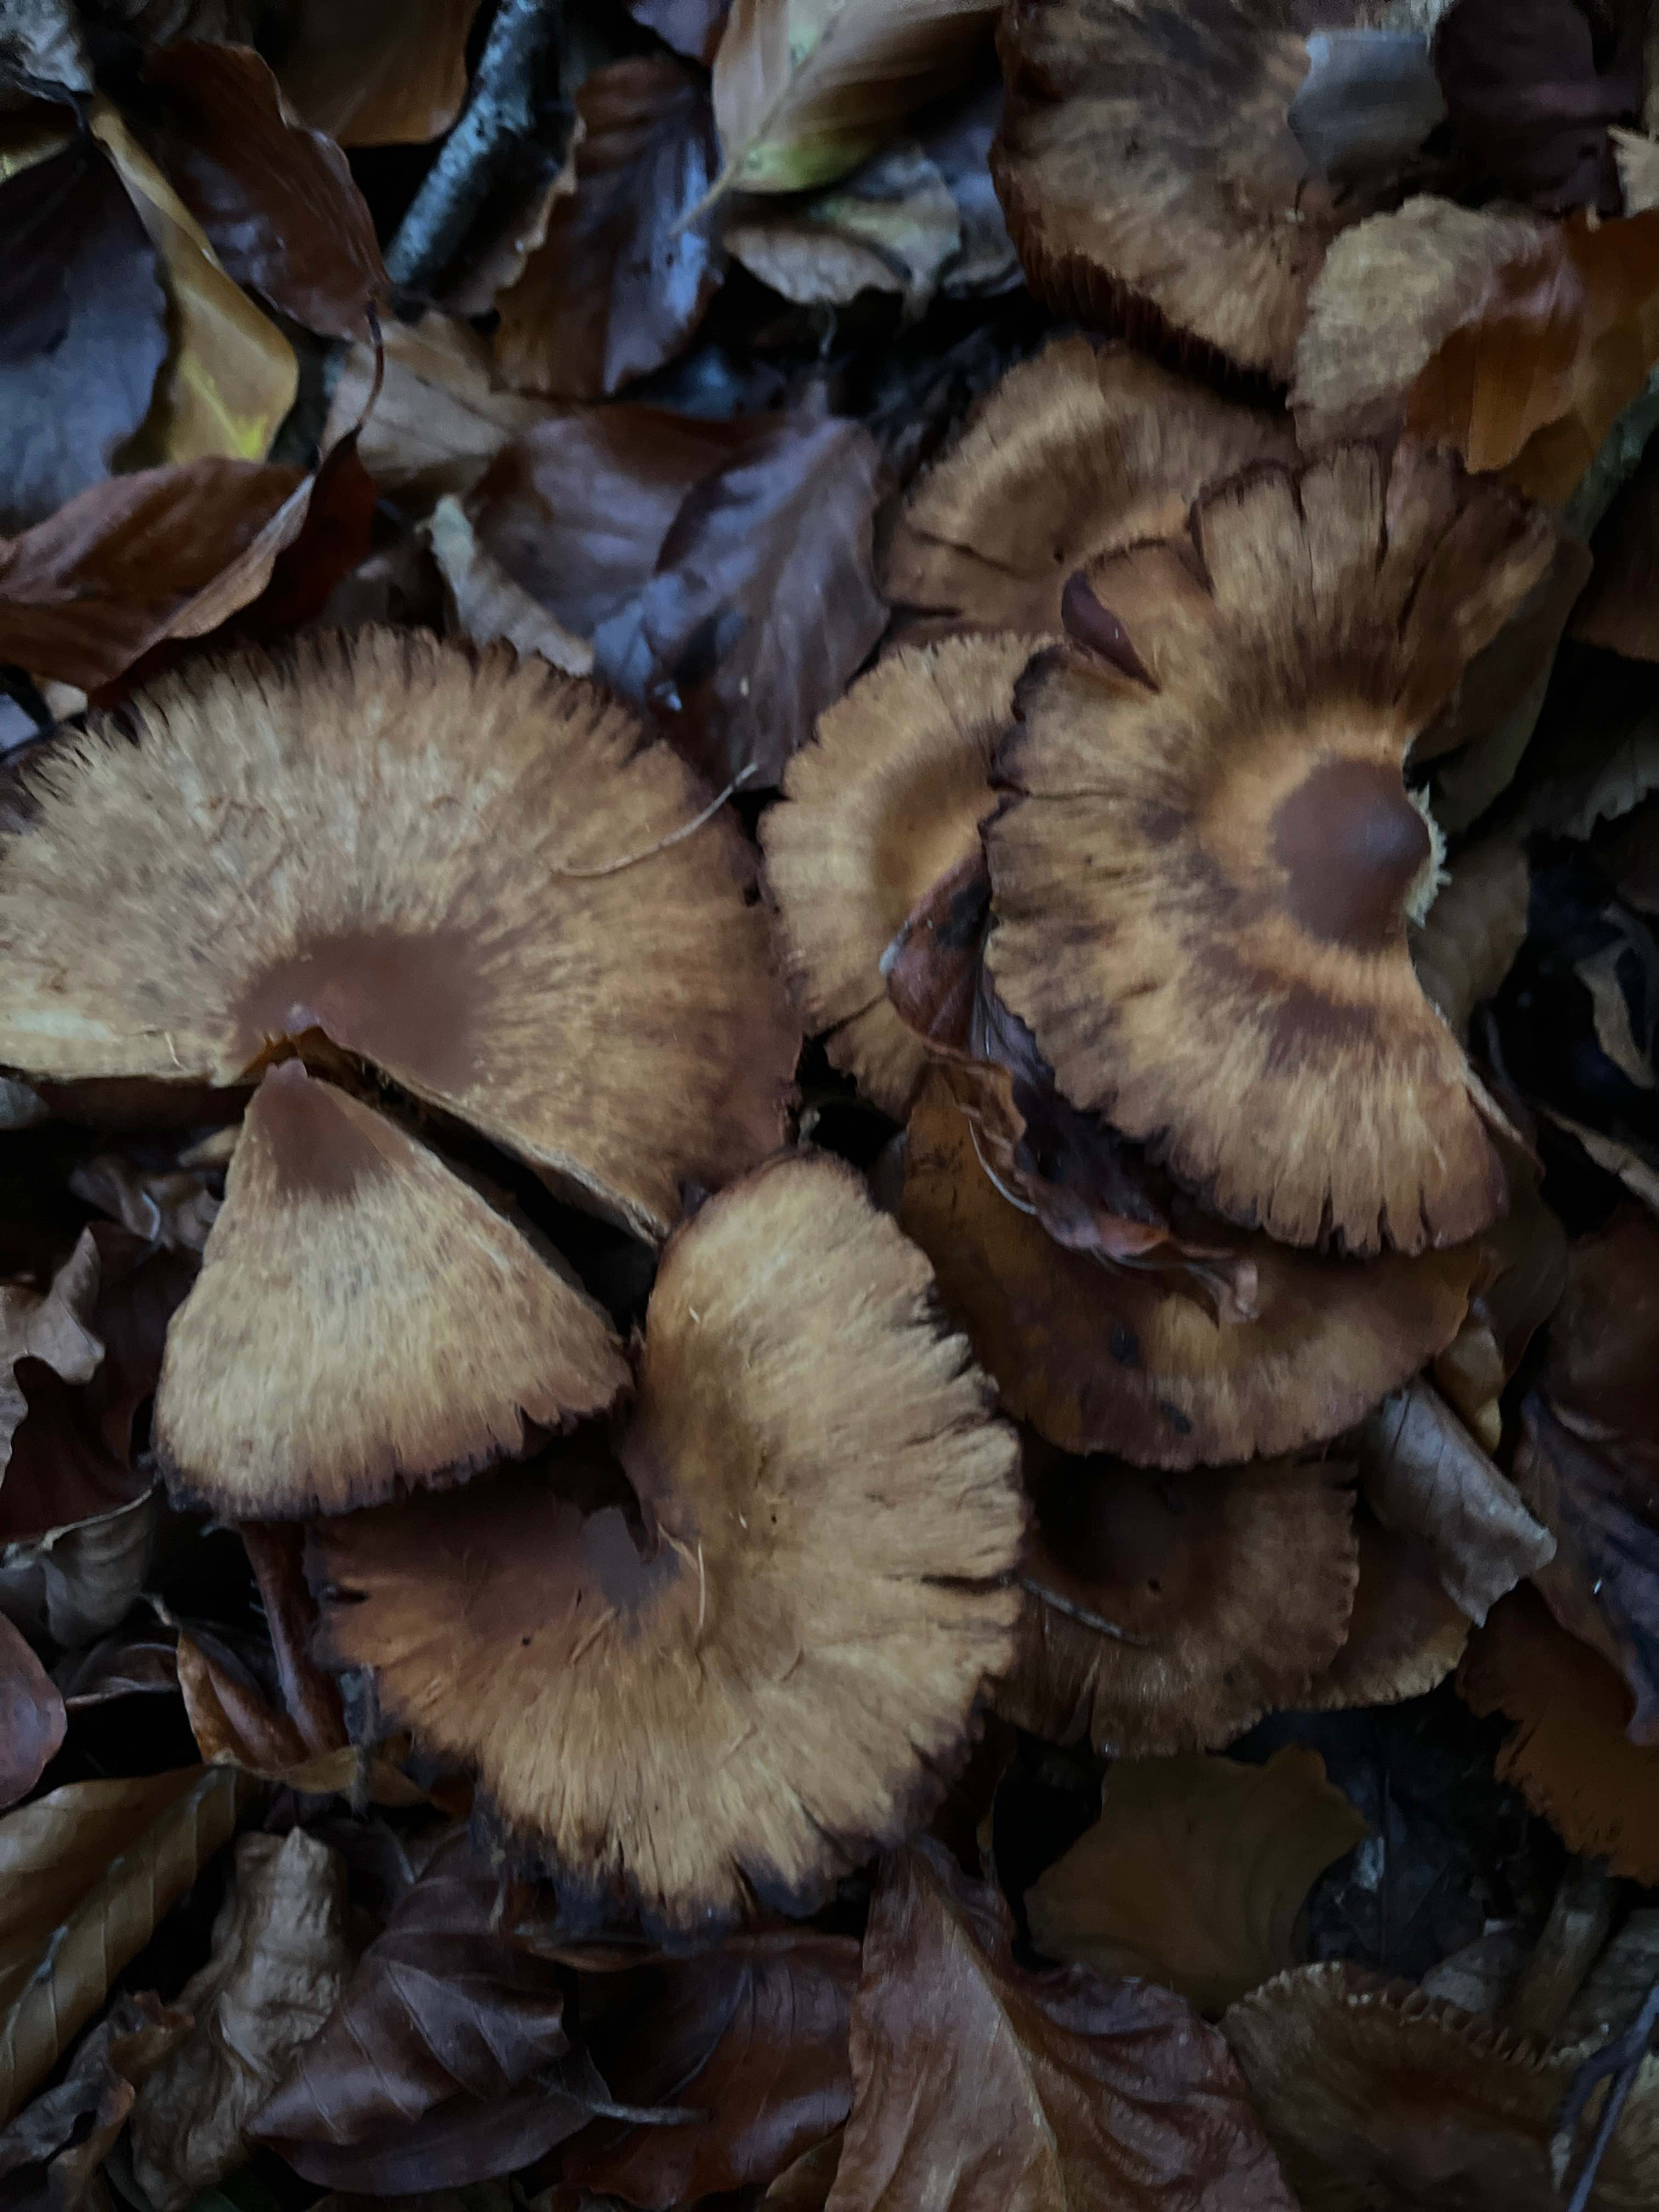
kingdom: Fungi
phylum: Basidiomycota
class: Agaricomycetes
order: Agaricales
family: Cortinariaceae
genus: Cortinarius
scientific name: Cortinarius
